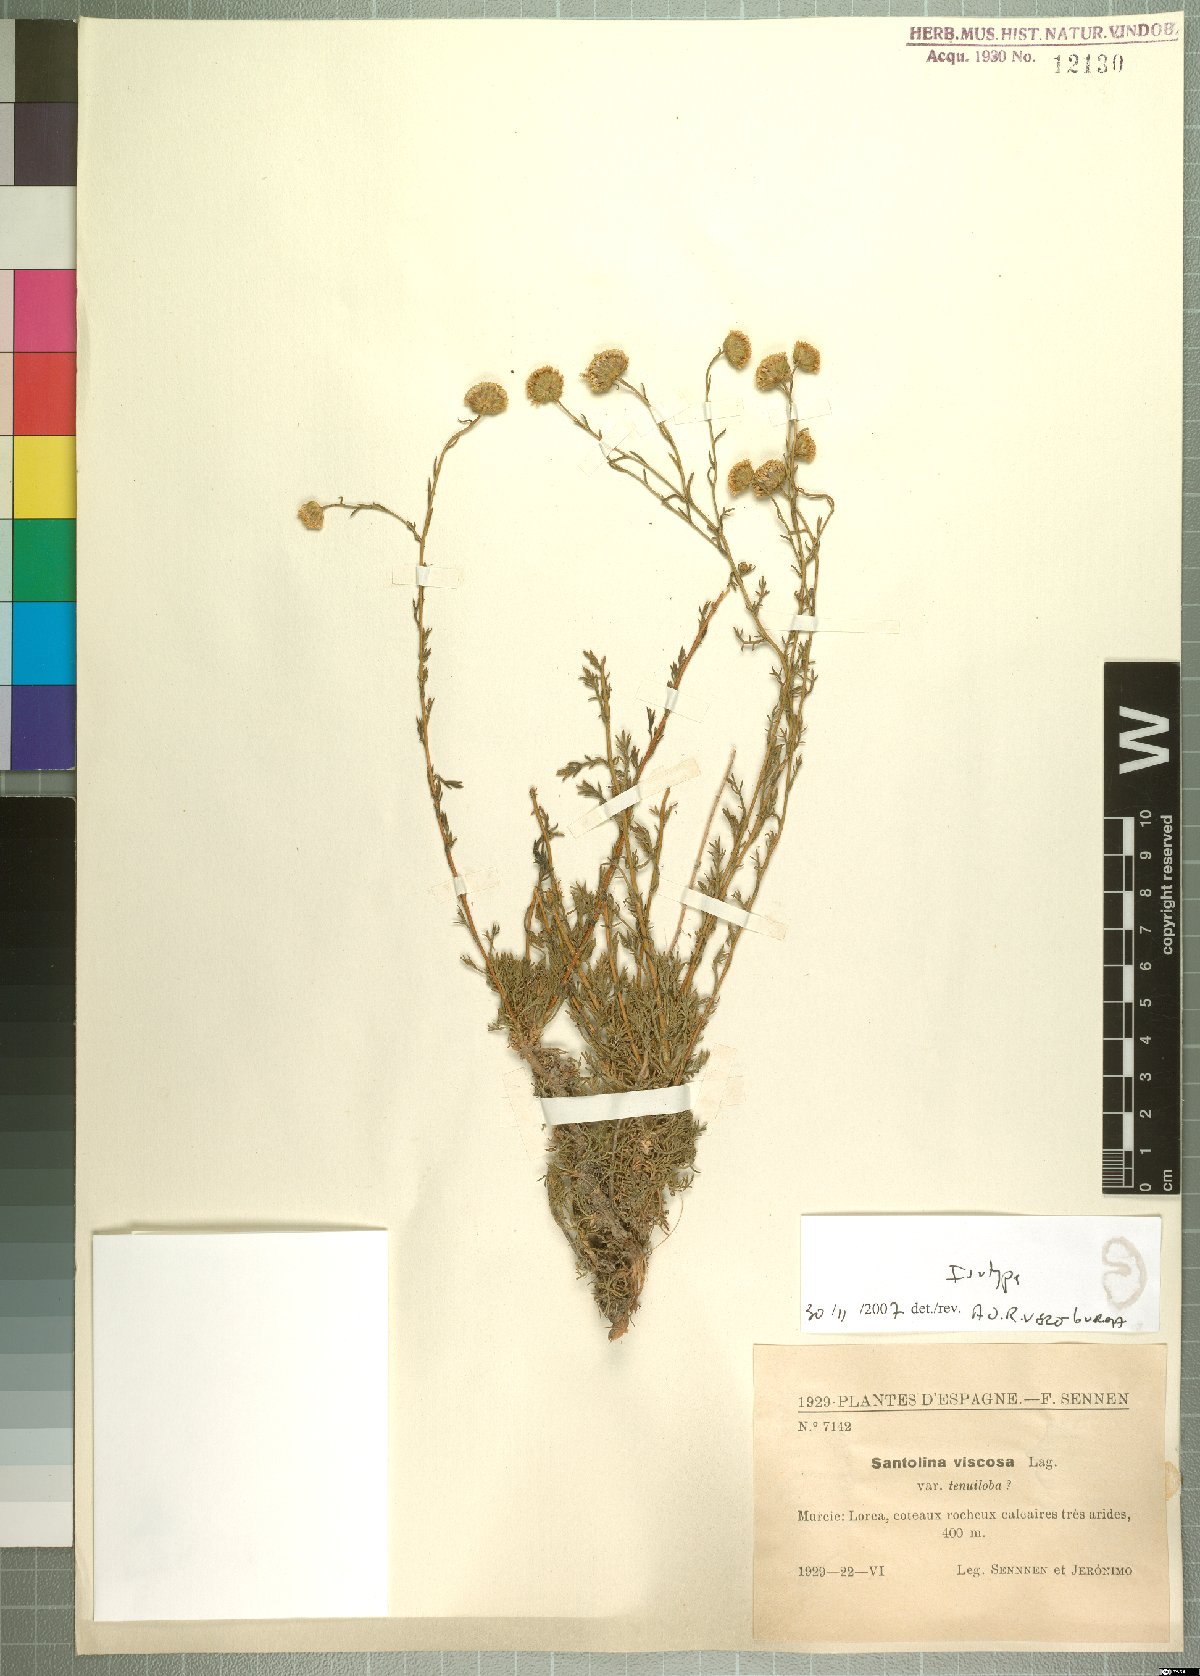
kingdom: Plantae
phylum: Tracheophyta
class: Magnoliopsida
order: Asterales
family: Asteraceae
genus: Santolina
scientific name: Santolina viscosa
